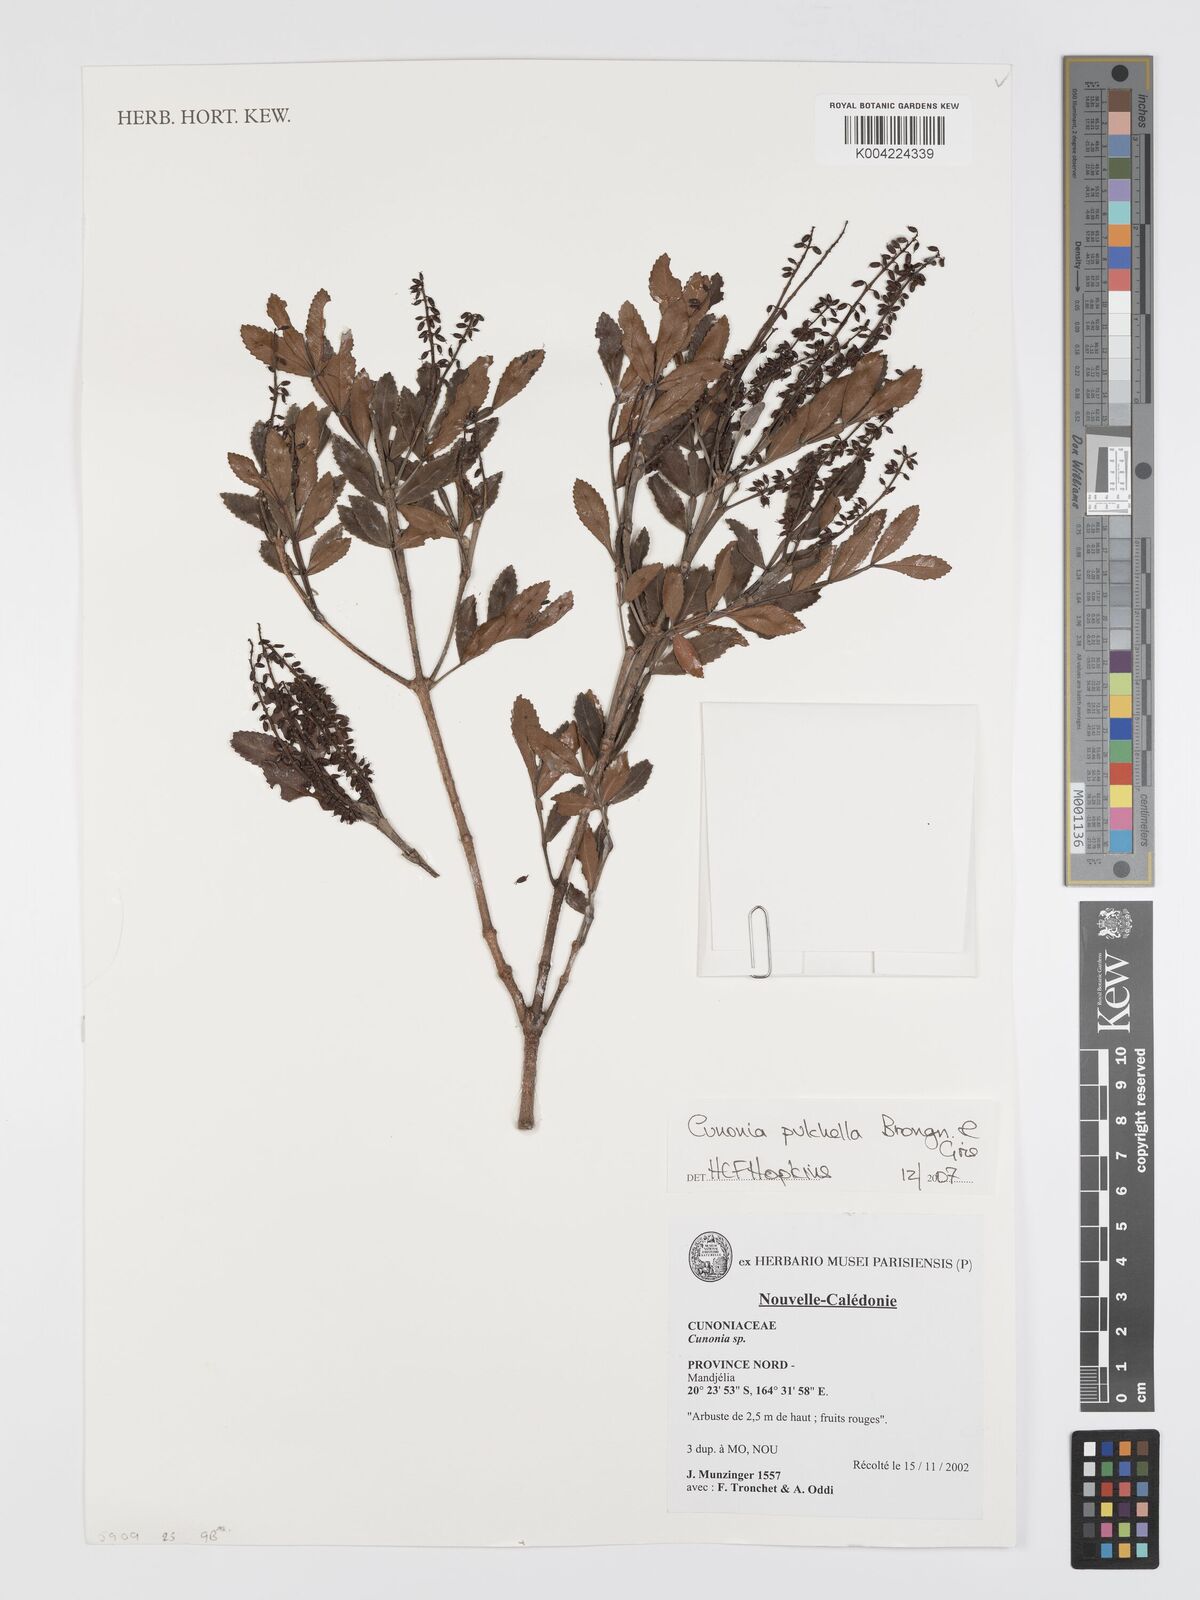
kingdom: Plantae
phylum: Tracheophyta
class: Magnoliopsida
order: Oxalidales
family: Cunoniaceae
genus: Cunonia
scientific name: Cunonia pulchella
